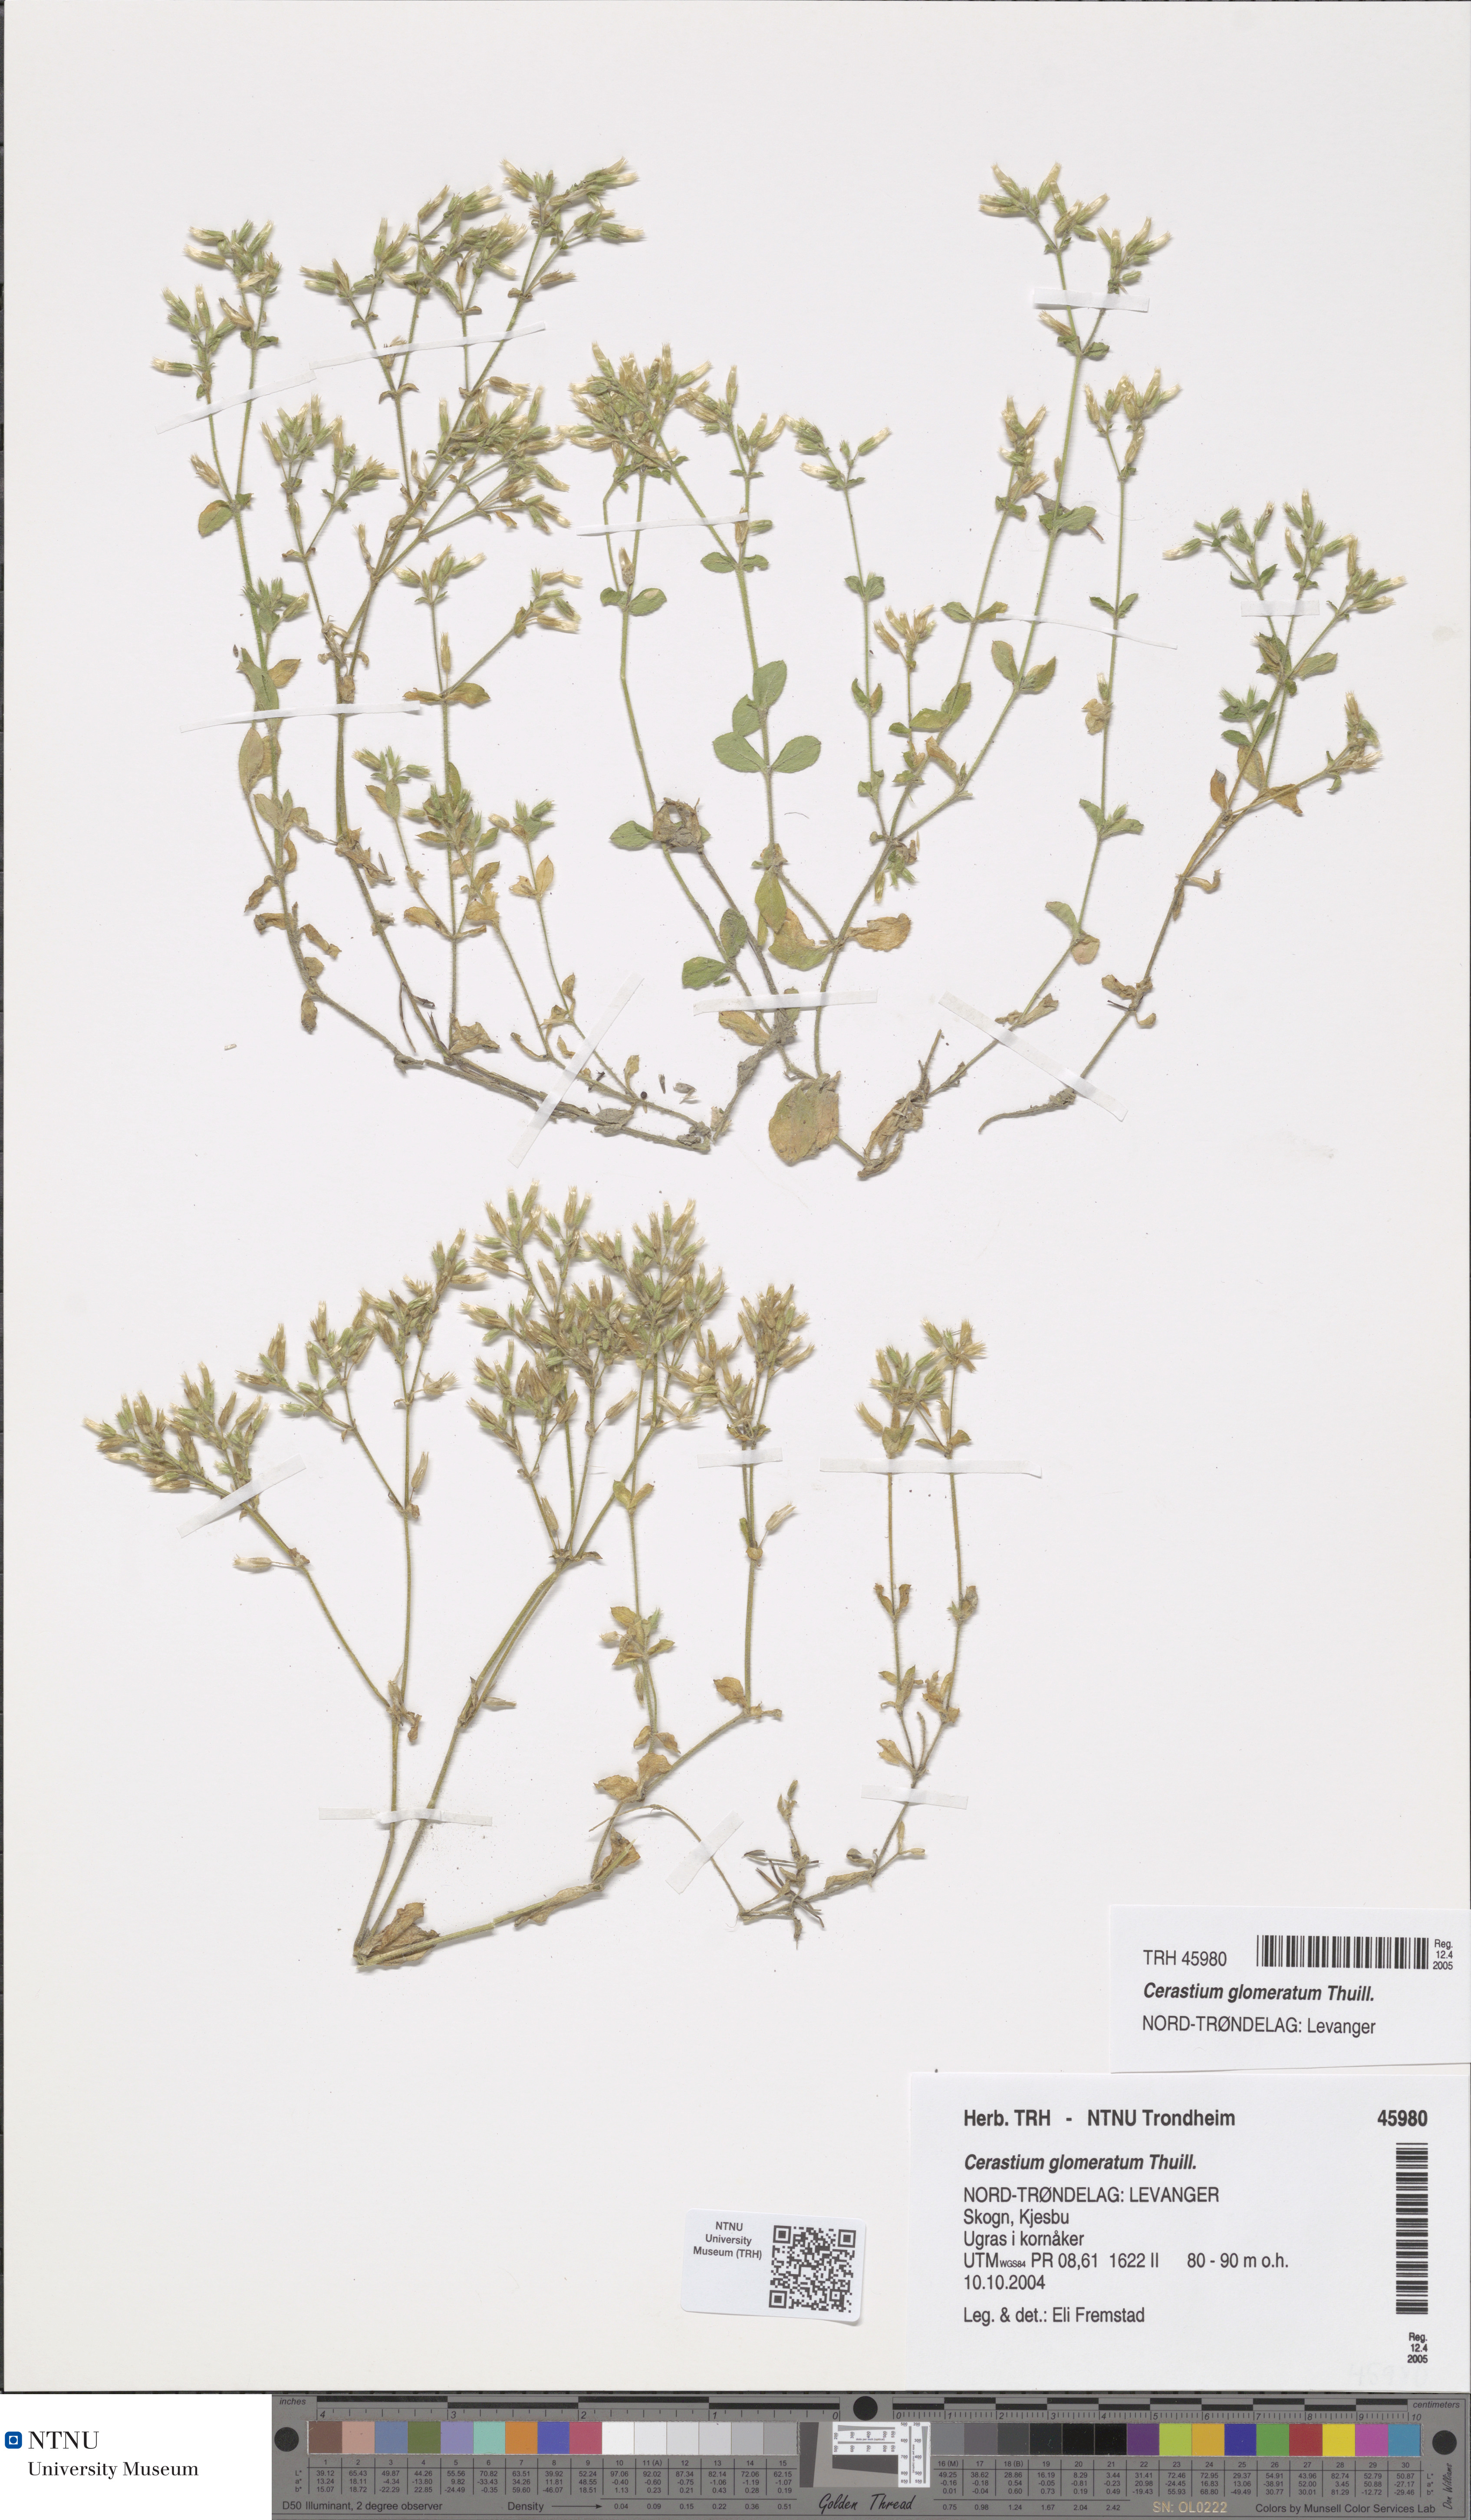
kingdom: Plantae
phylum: Tracheophyta
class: Magnoliopsida
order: Caryophyllales
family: Caryophyllaceae
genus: Cerastium
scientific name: Cerastium glomeratum
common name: Sticky chickweed
